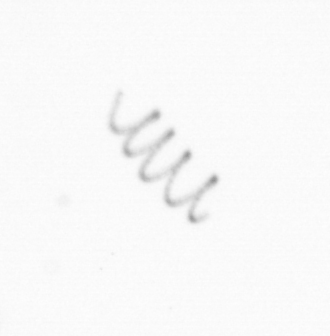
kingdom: Chromista
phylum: Ochrophyta
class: Bacillariophyceae
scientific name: Bacillariophyceae
